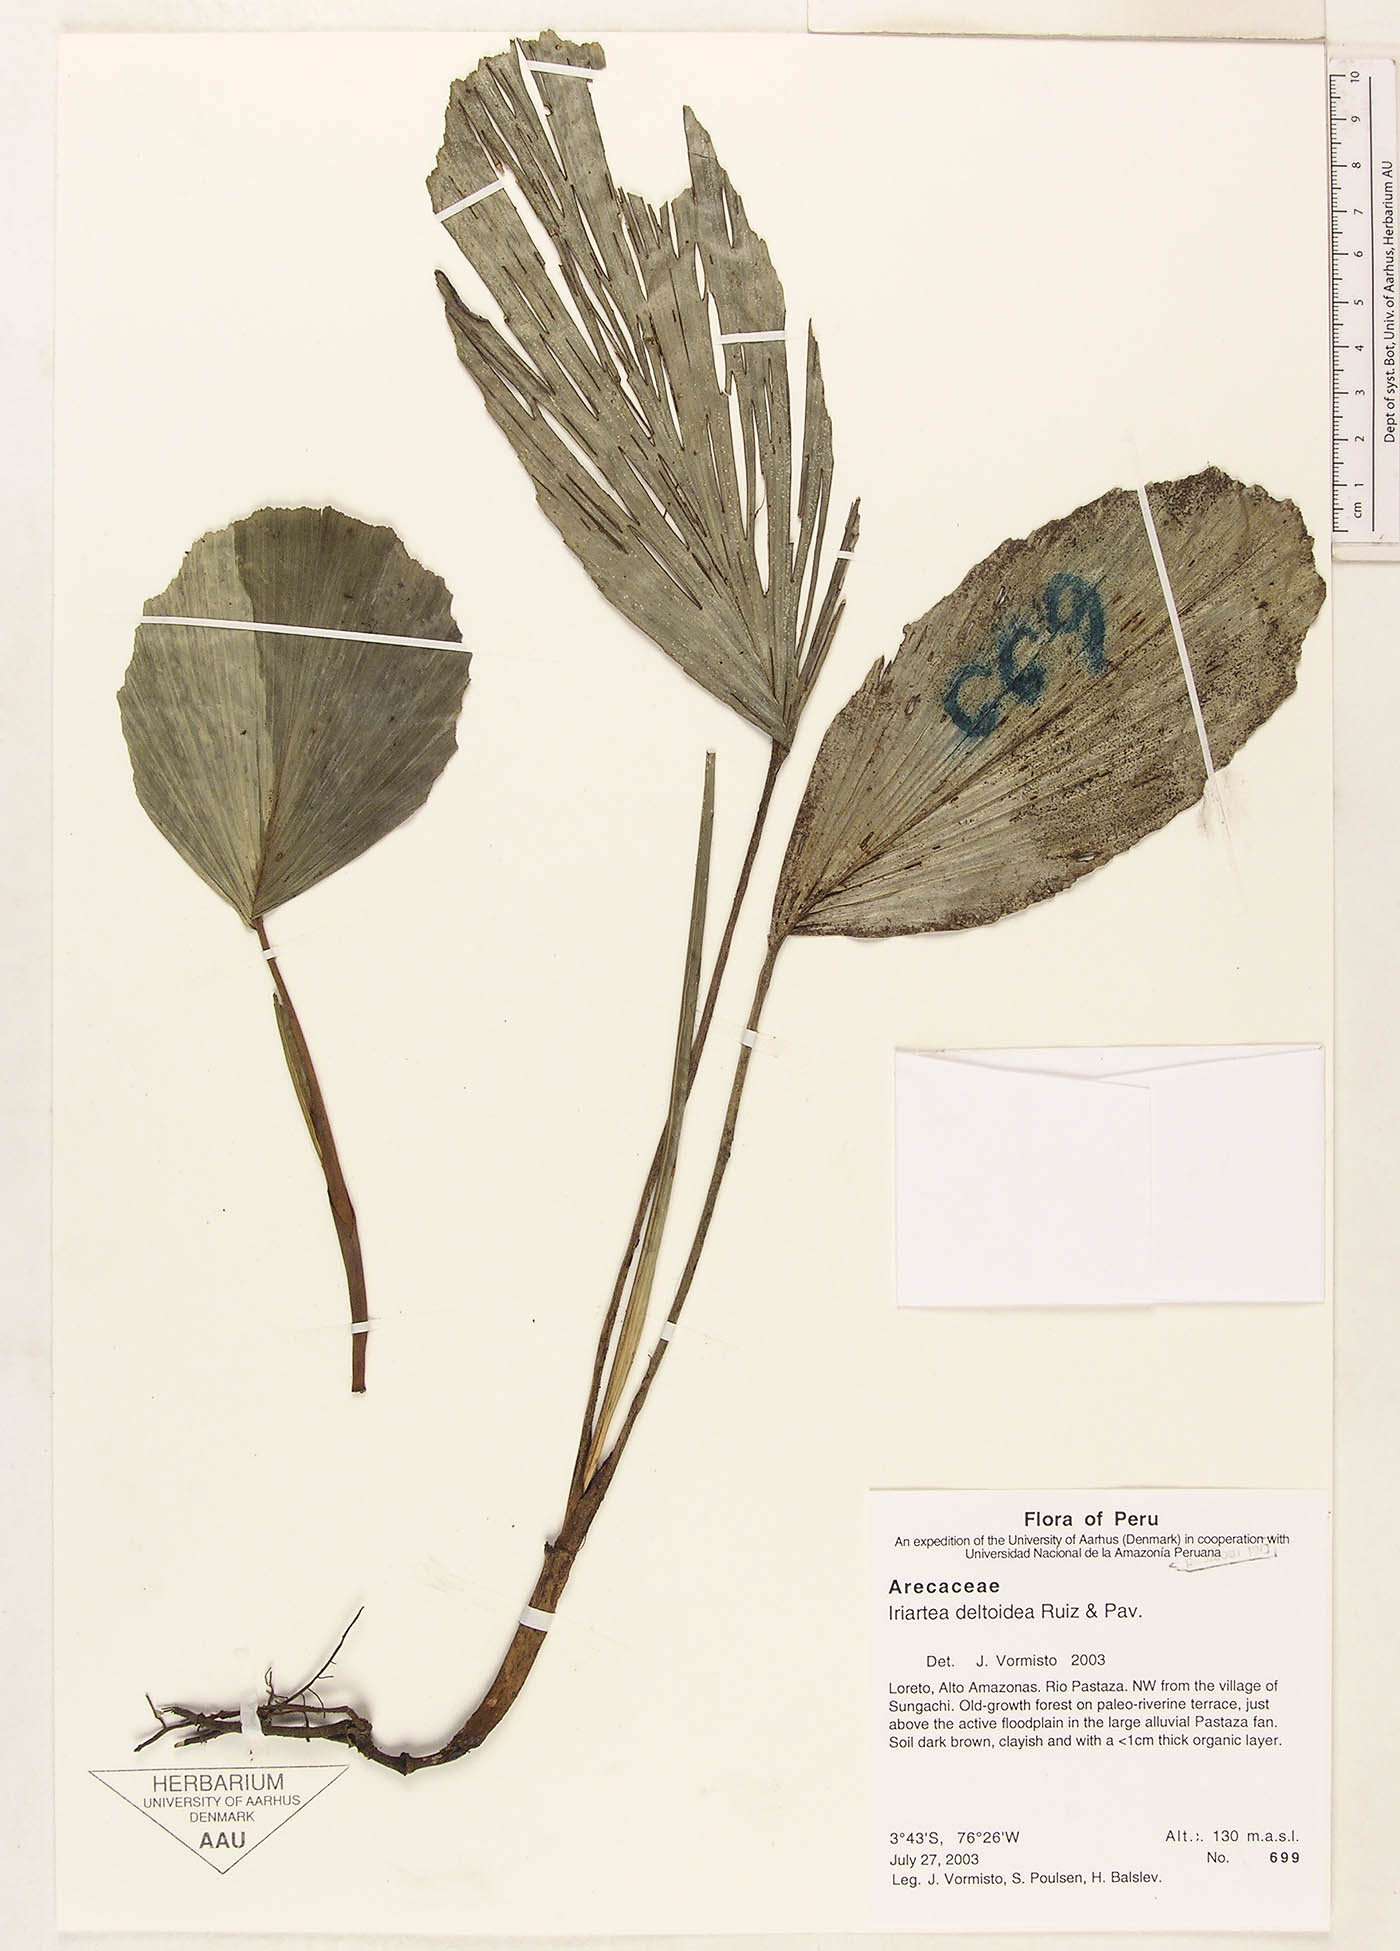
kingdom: Plantae
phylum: Tracheophyta
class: Liliopsida
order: Arecales
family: Arecaceae
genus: Iriartea
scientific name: Iriartea deltoidea
